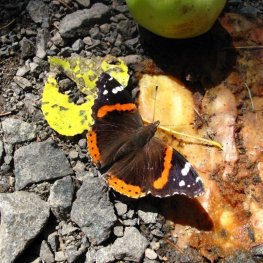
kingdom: Animalia
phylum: Arthropoda
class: Insecta
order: Lepidoptera
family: Nymphalidae
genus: Vanessa
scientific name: Vanessa atalanta
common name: Red Admiral
